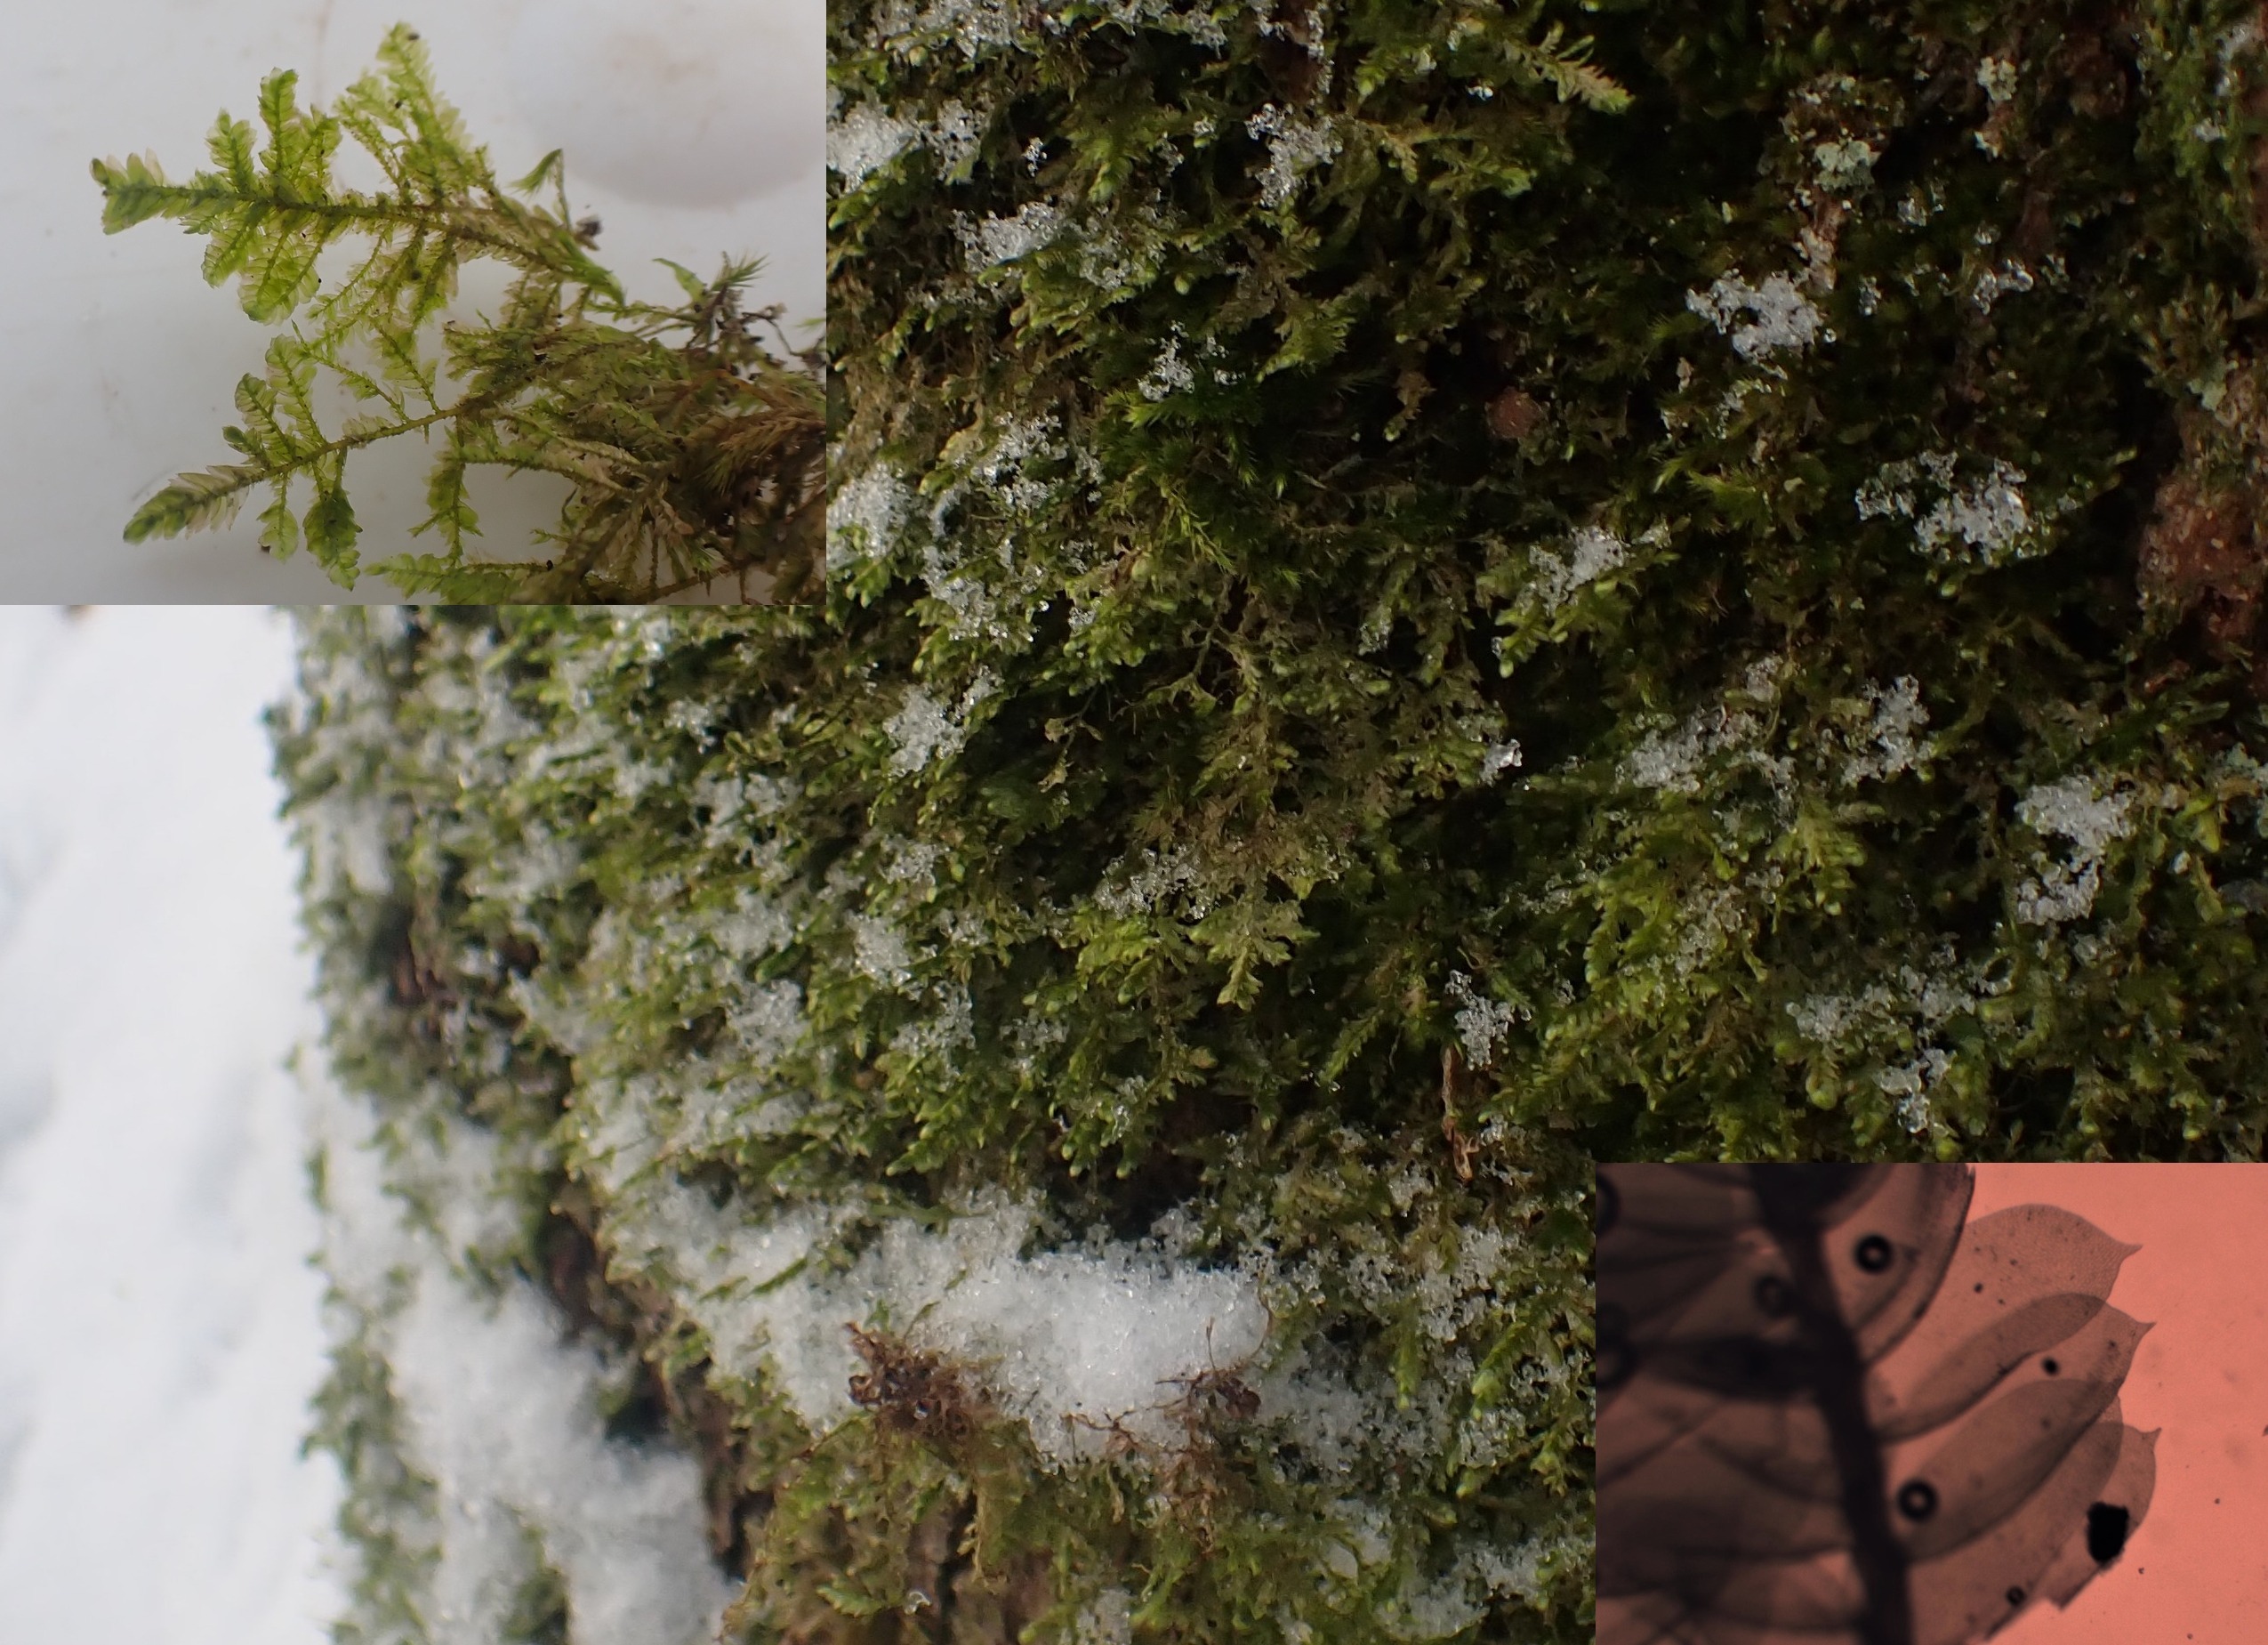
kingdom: Plantae
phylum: Bryophyta
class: Bryopsida
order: Hypnales
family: Neckeraceae
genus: Alleniella
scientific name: Alleniella complanata
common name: Almindelig fladmos
